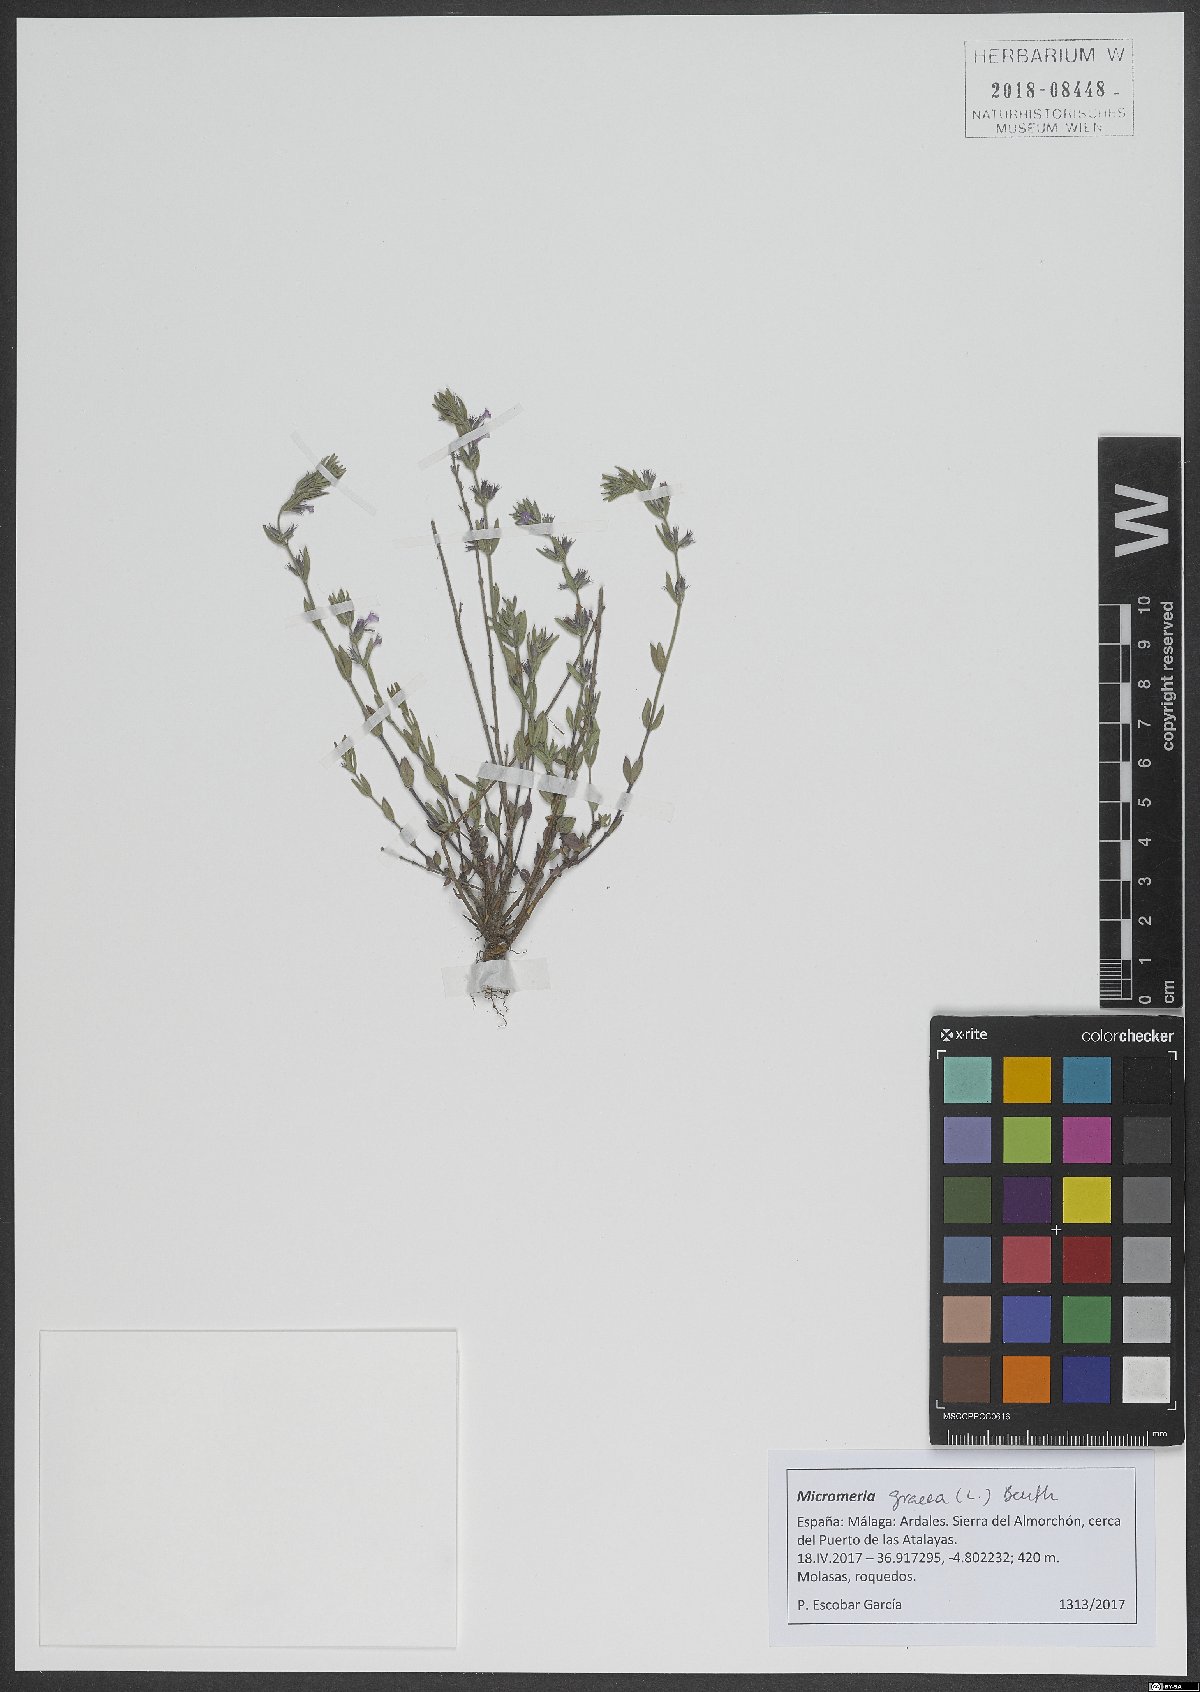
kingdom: Plantae
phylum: Tracheophyta
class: Magnoliopsida
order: Lamiales
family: Lamiaceae
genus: Micromeria
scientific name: Micromeria graeca
